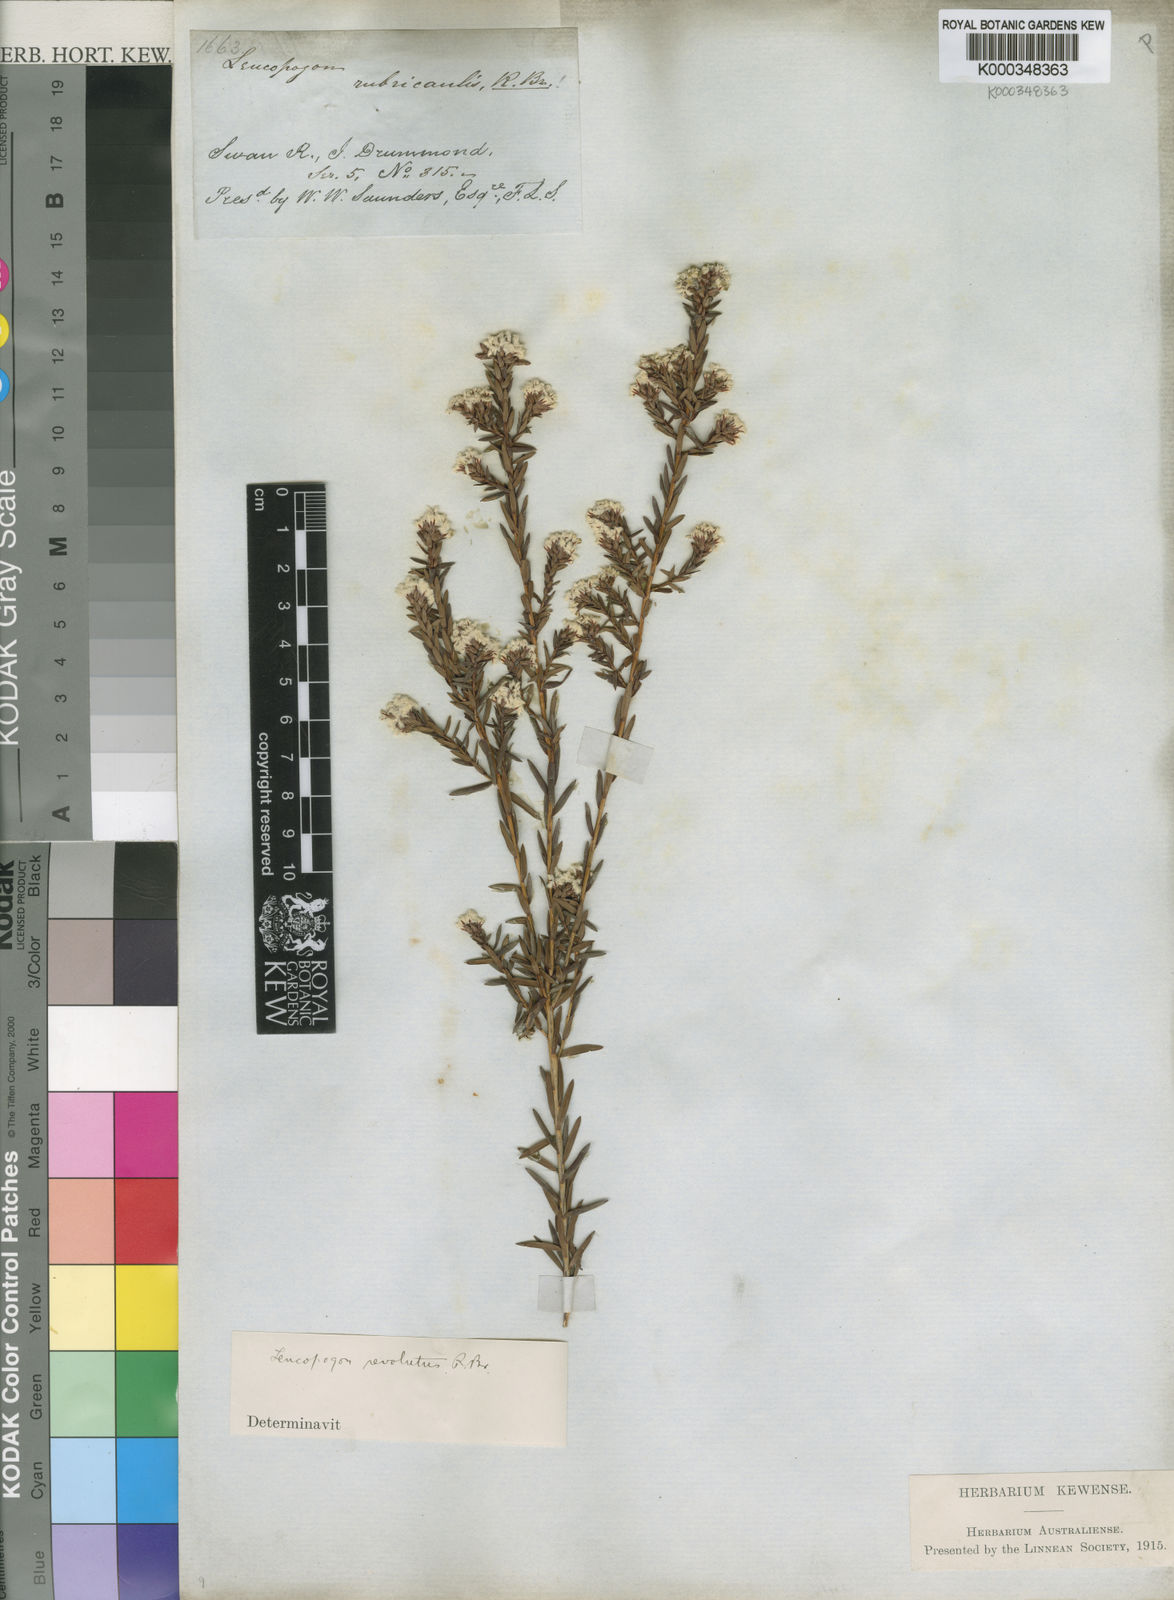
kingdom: Plantae
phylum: Tracheophyta
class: Magnoliopsida
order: Ericales
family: Ericaceae
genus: Leucopogon
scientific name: Leucopogon obovatus
